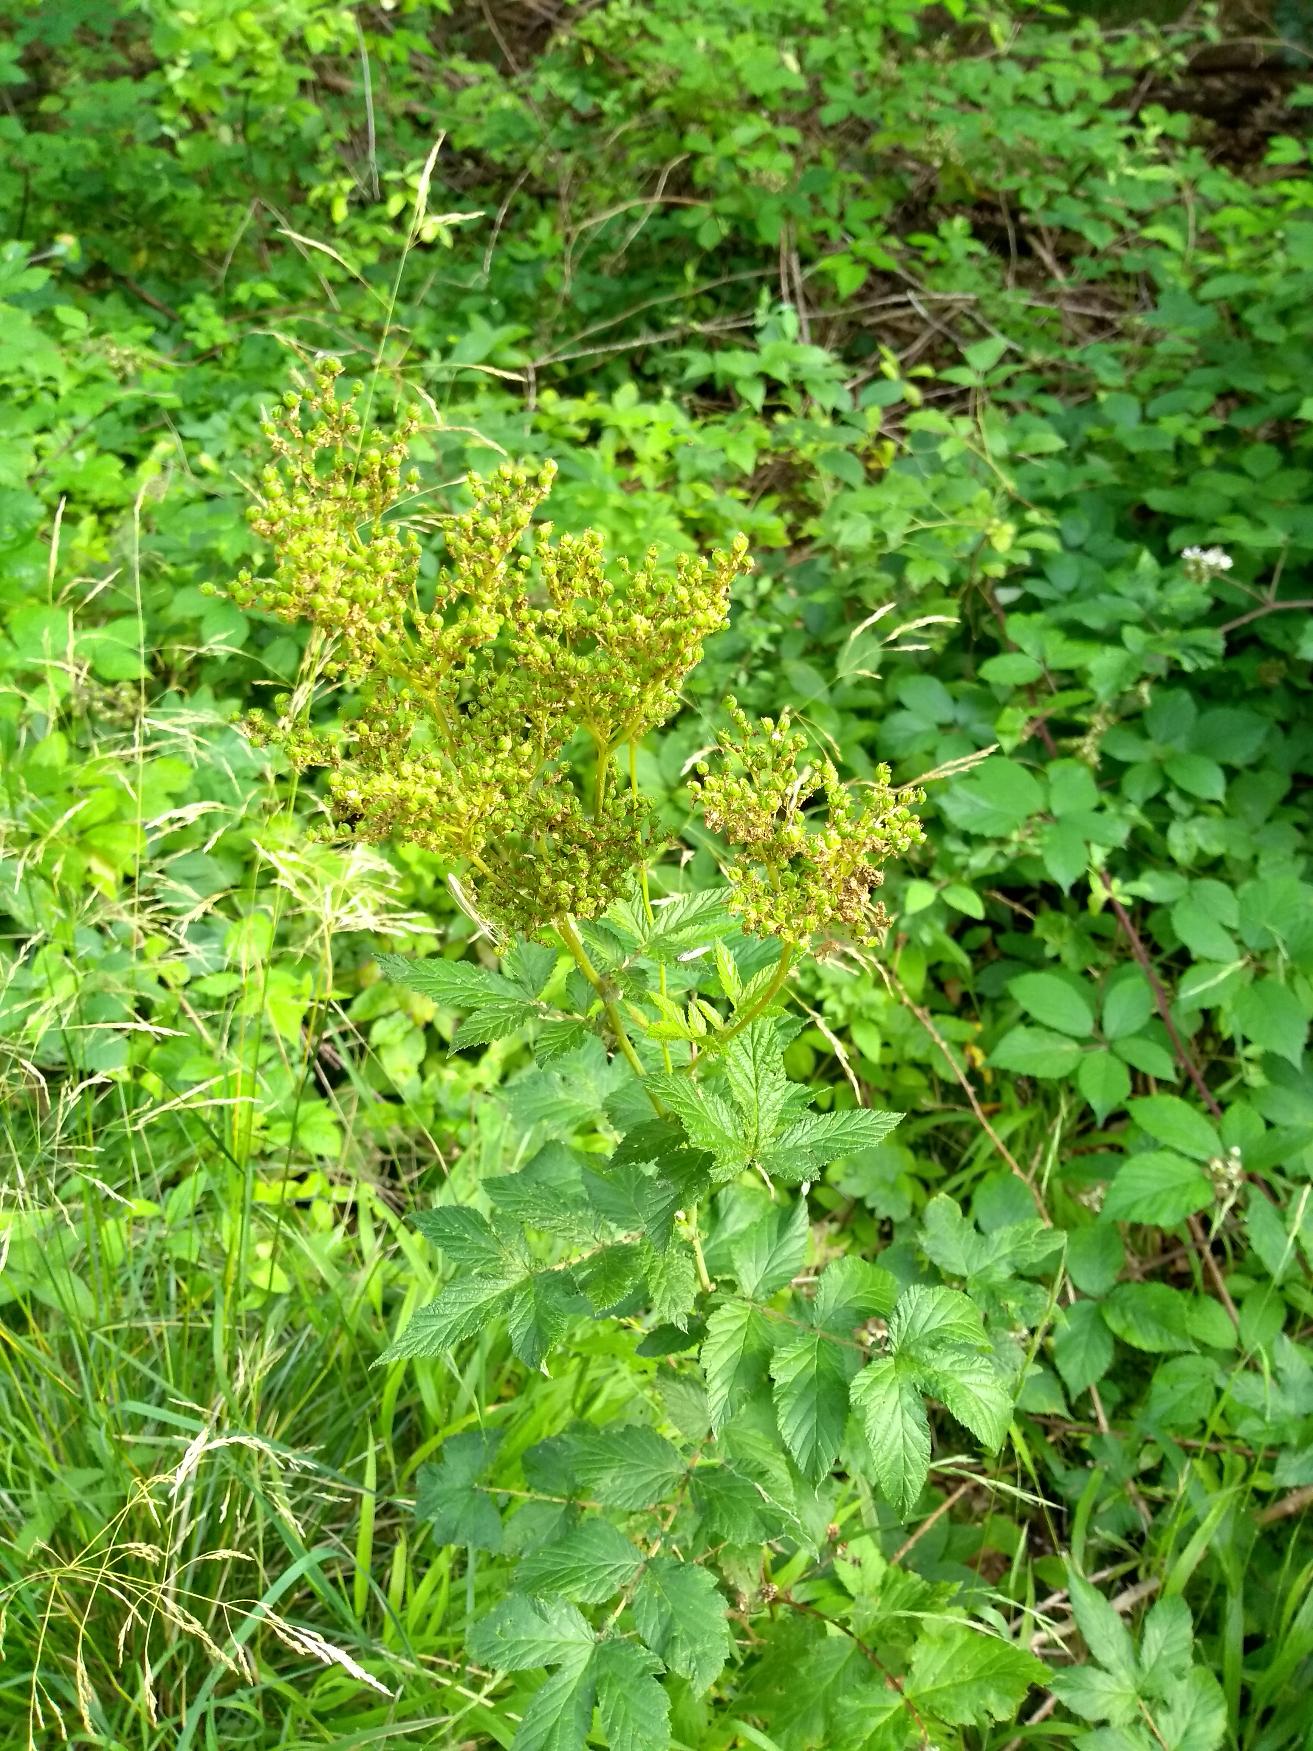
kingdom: Plantae
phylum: Tracheophyta
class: Magnoliopsida
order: Rosales
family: Rosaceae
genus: Filipendula
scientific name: Filipendula ulmaria
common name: Almindelig mjødurt
